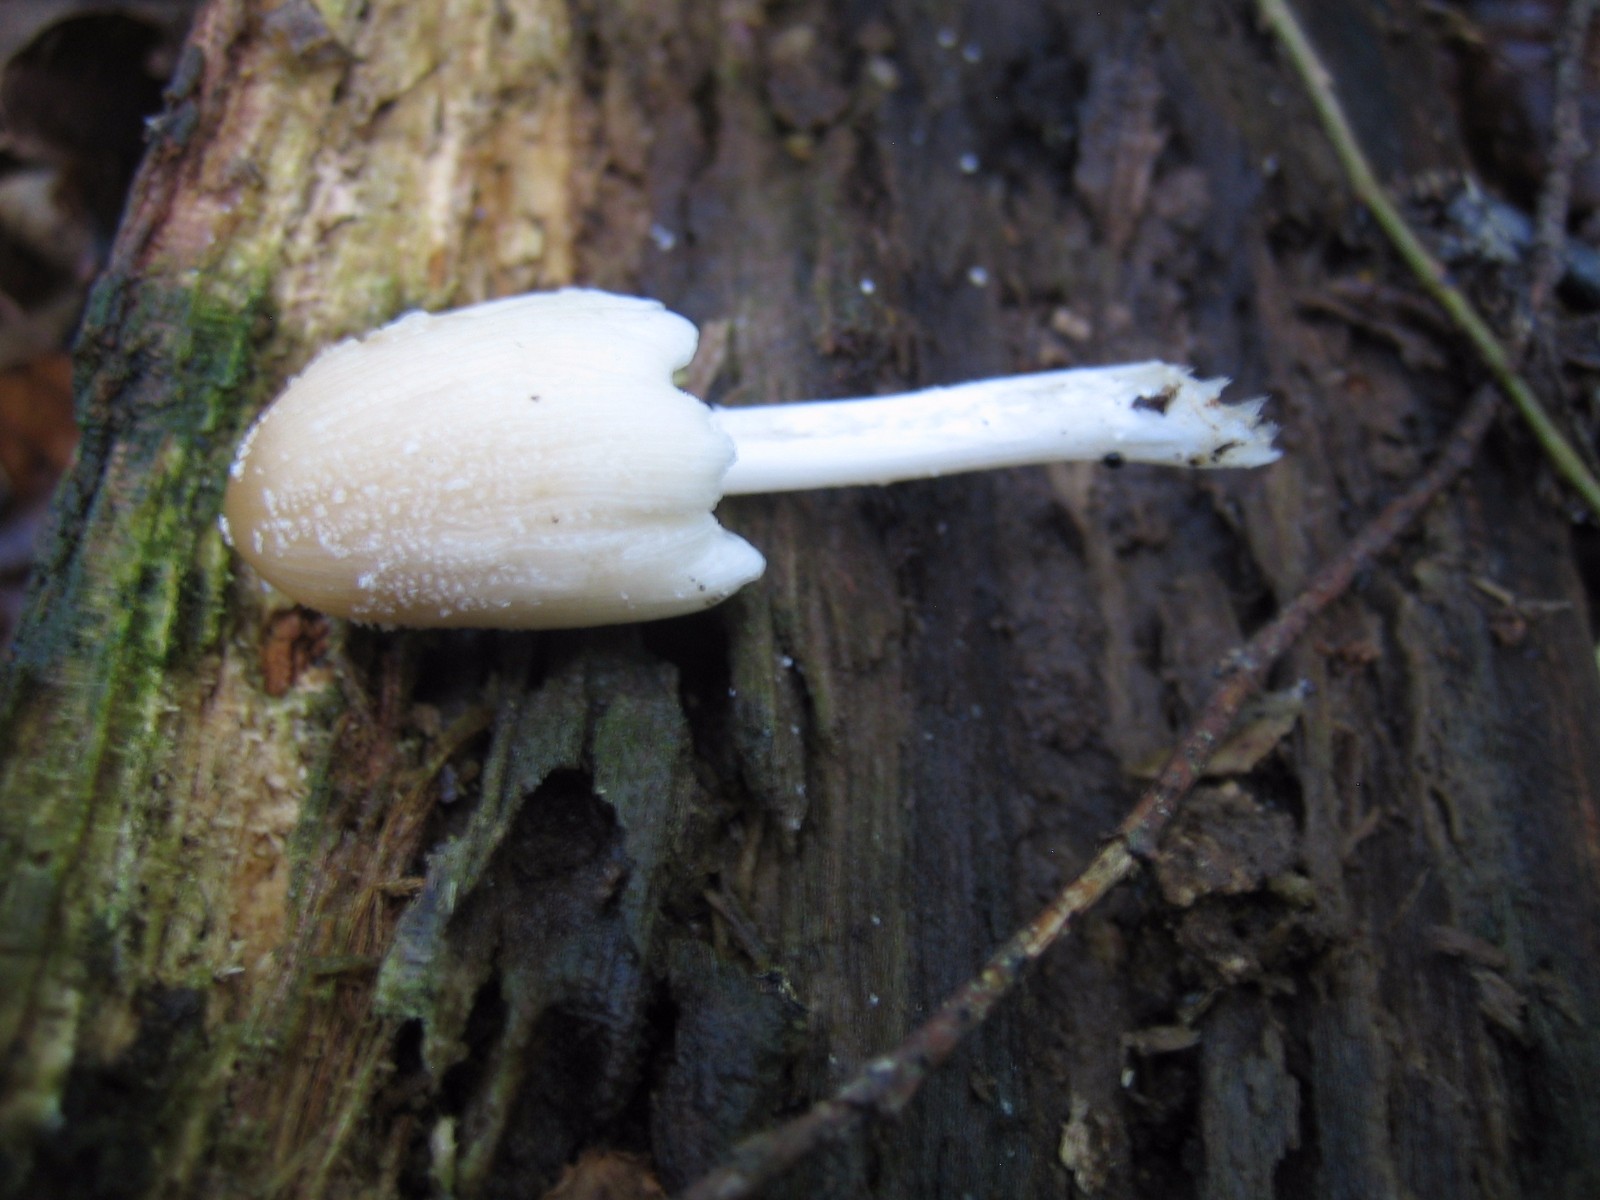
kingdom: Fungi
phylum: Basidiomycota
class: Agaricomycetes
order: Agaricales
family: Psathyrellaceae
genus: Coprinellus
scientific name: Coprinellus micaceus
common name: glimmer-blækhat
